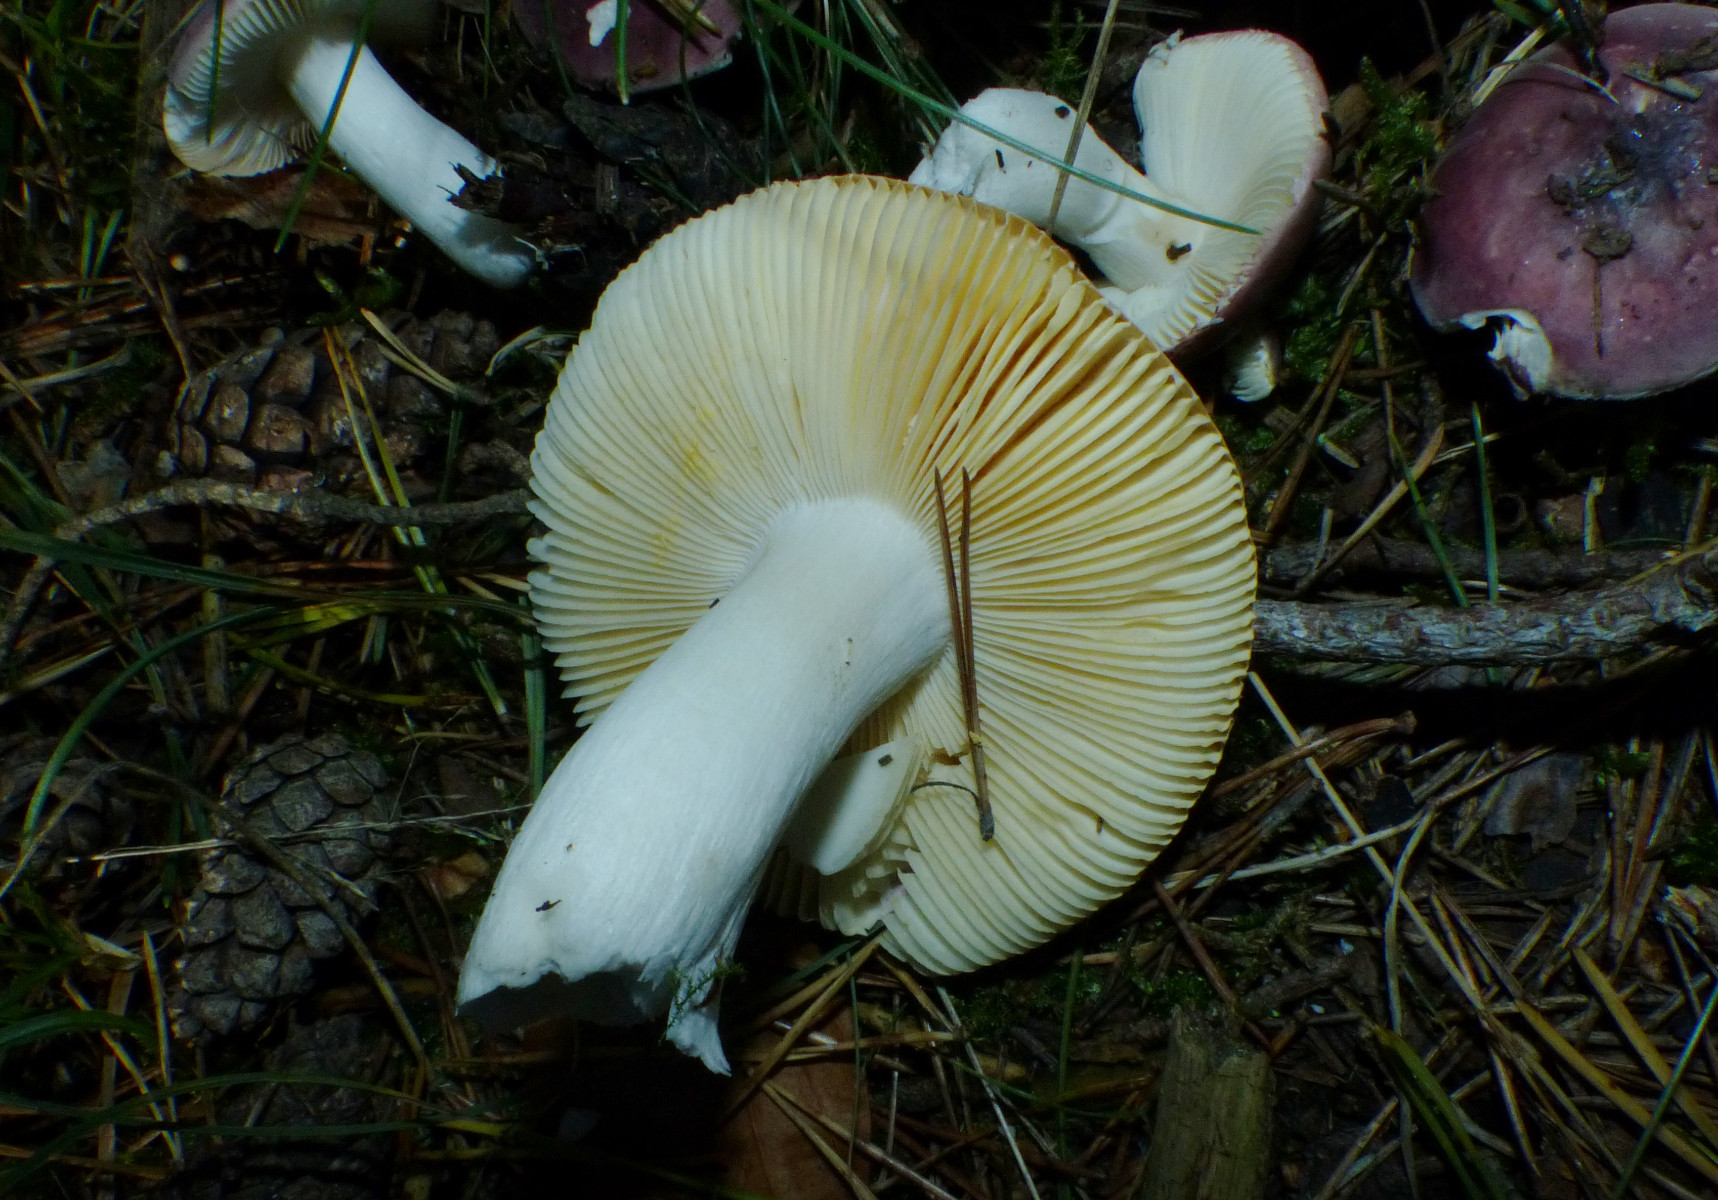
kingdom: Fungi
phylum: Basidiomycota
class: Agaricomycetes
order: Russulales
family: Russulaceae
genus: Russula
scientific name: Russula
